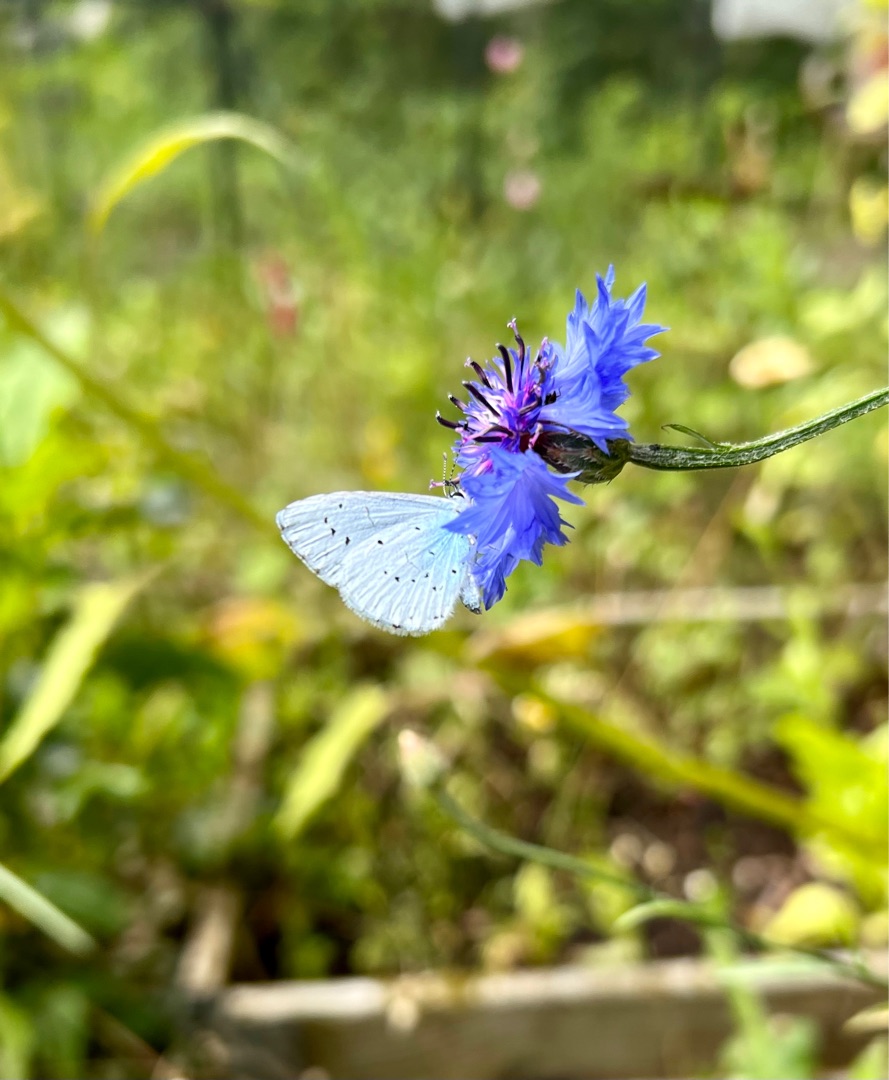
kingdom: Animalia
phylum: Arthropoda
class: Insecta
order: Lepidoptera
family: Lycaenidae
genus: Celastrina
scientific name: Celastrina argiolus
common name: Skovblåfugl
